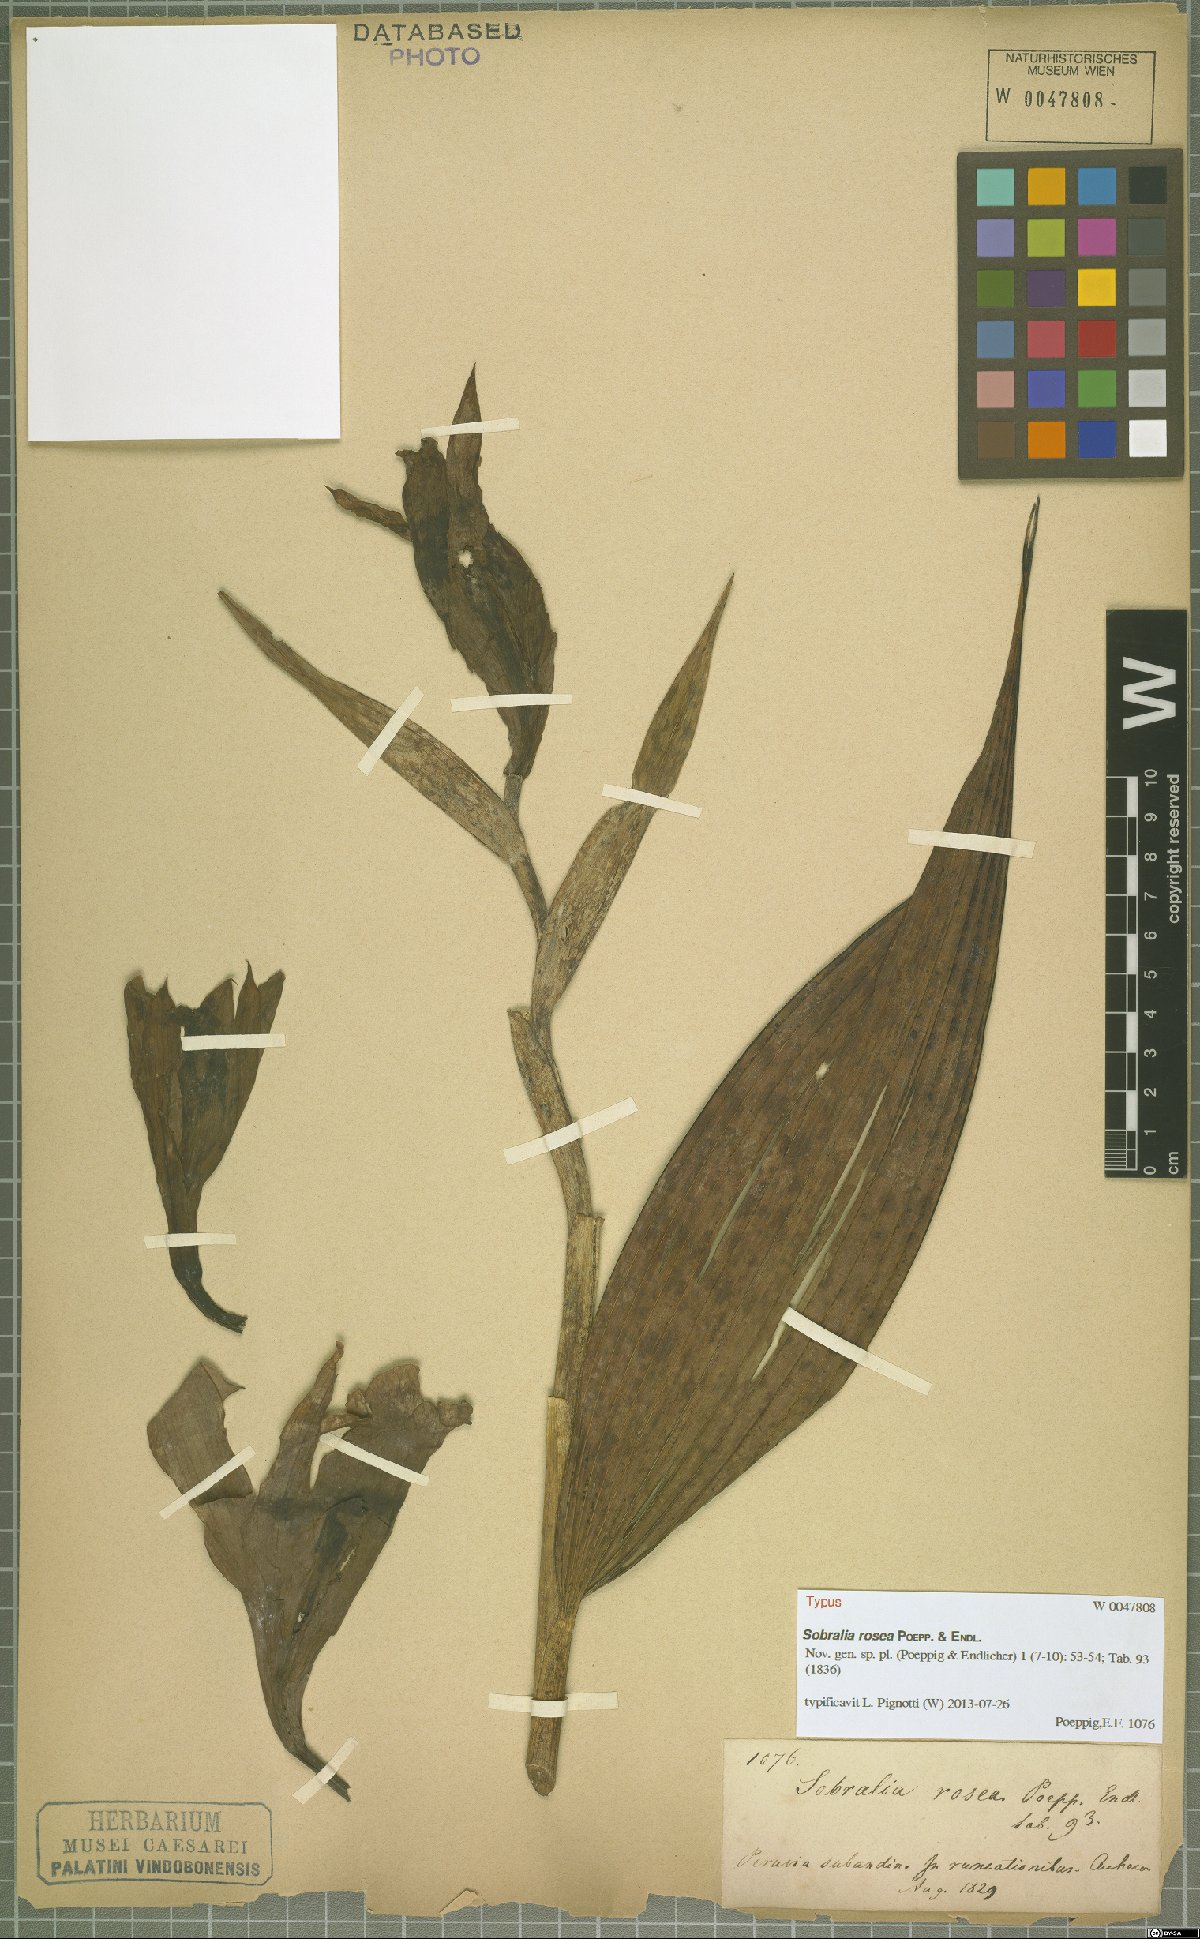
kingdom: Plantae
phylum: Tracheophyta
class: Liliopsida
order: Asparagales
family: Orchidaceae
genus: Sobralia
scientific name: Sobralia rosea
